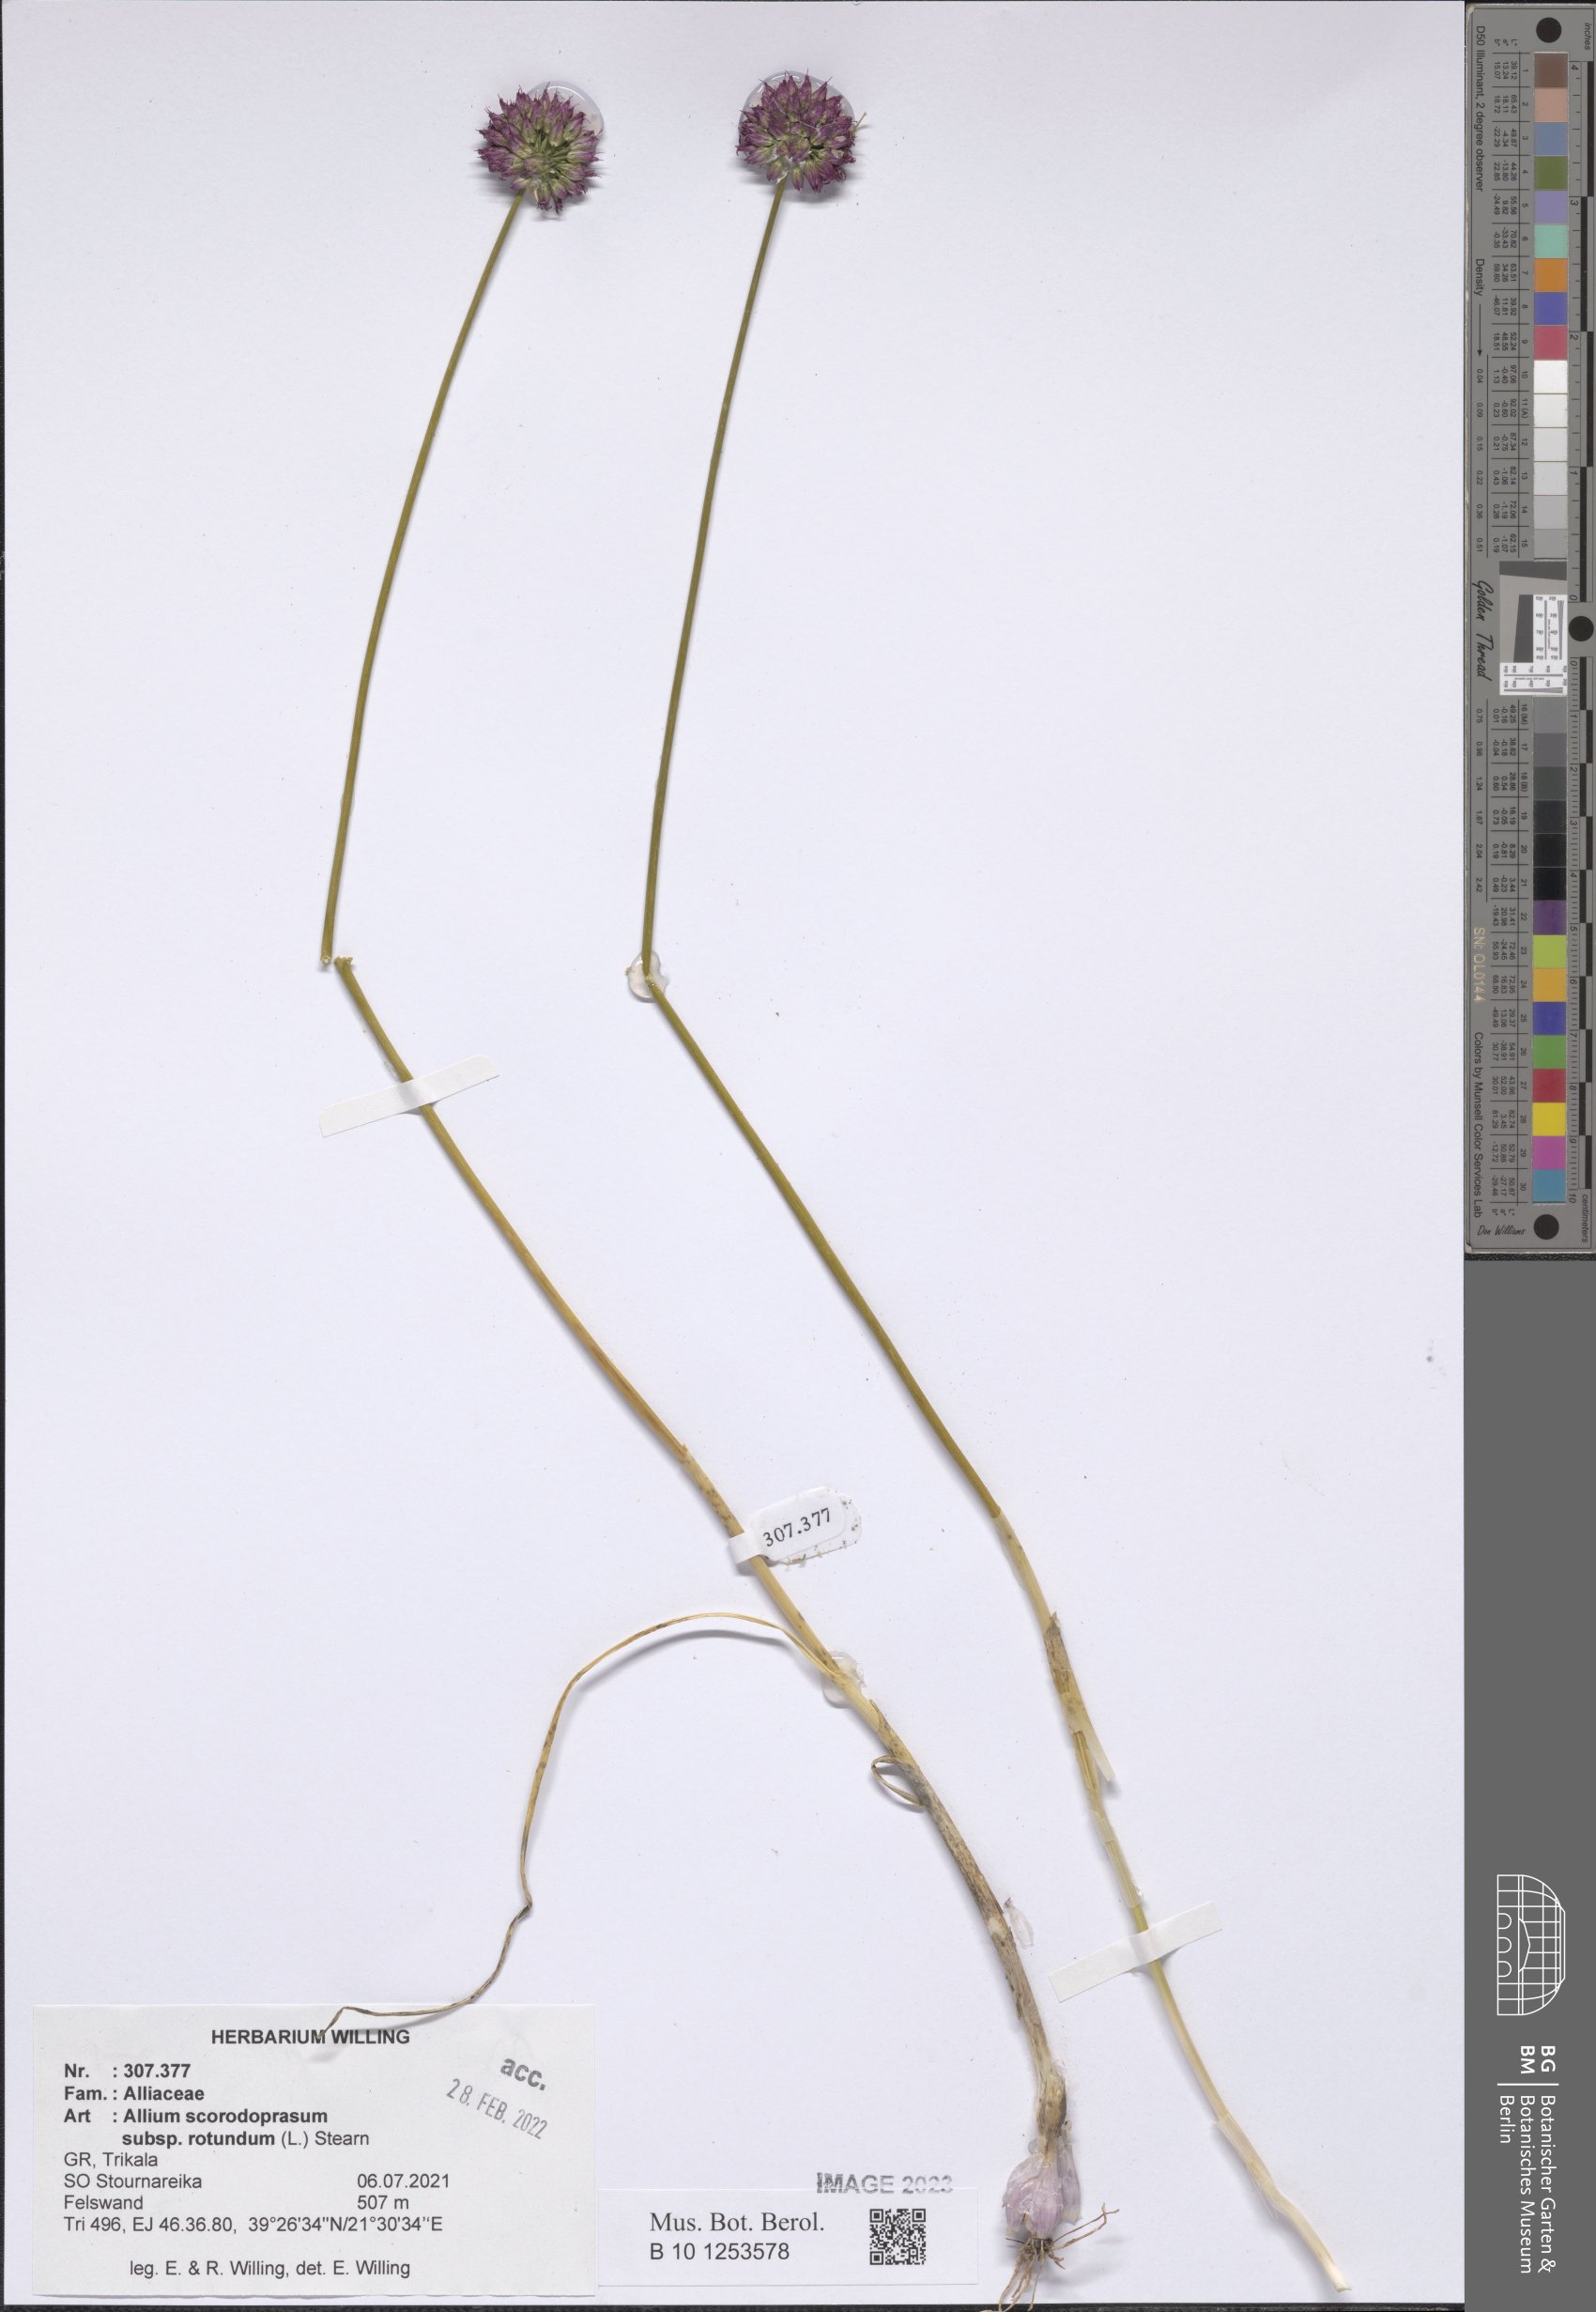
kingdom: Plantae
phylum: Tracheophyta
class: Liliopsida
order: Asparagales
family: Amaryllidaceae
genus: Allium
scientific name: Allium rotundum
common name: Sand leek
